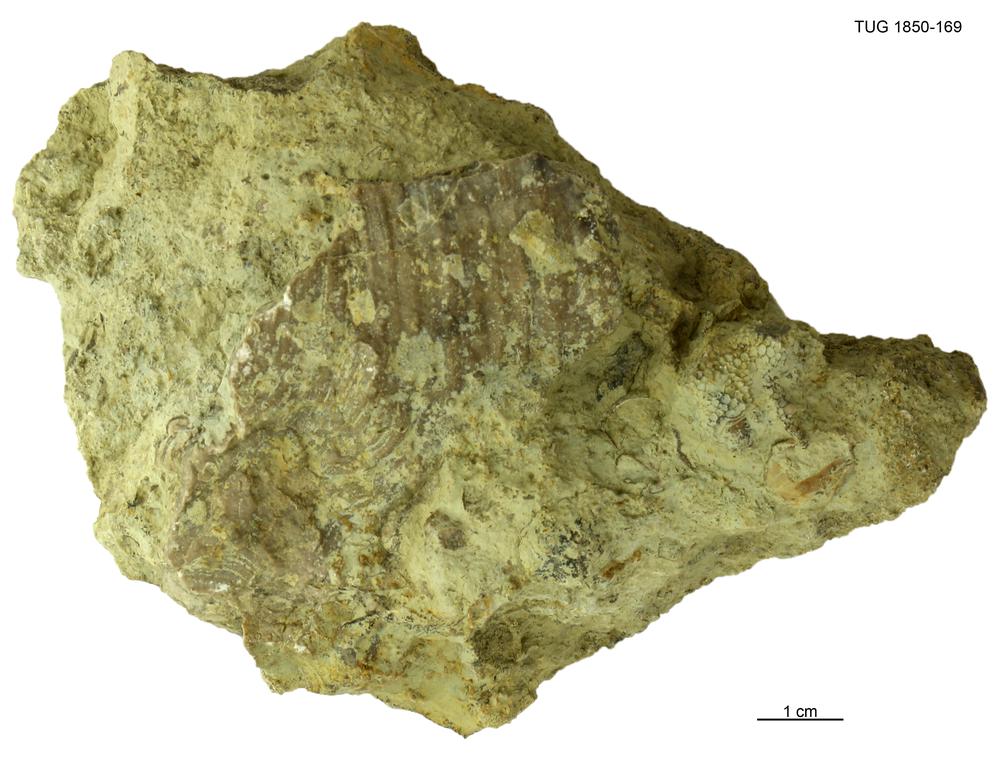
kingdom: Animalia
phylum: Porifera
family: Stromatoporidae
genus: Stromatopora
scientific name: Stromatopora
